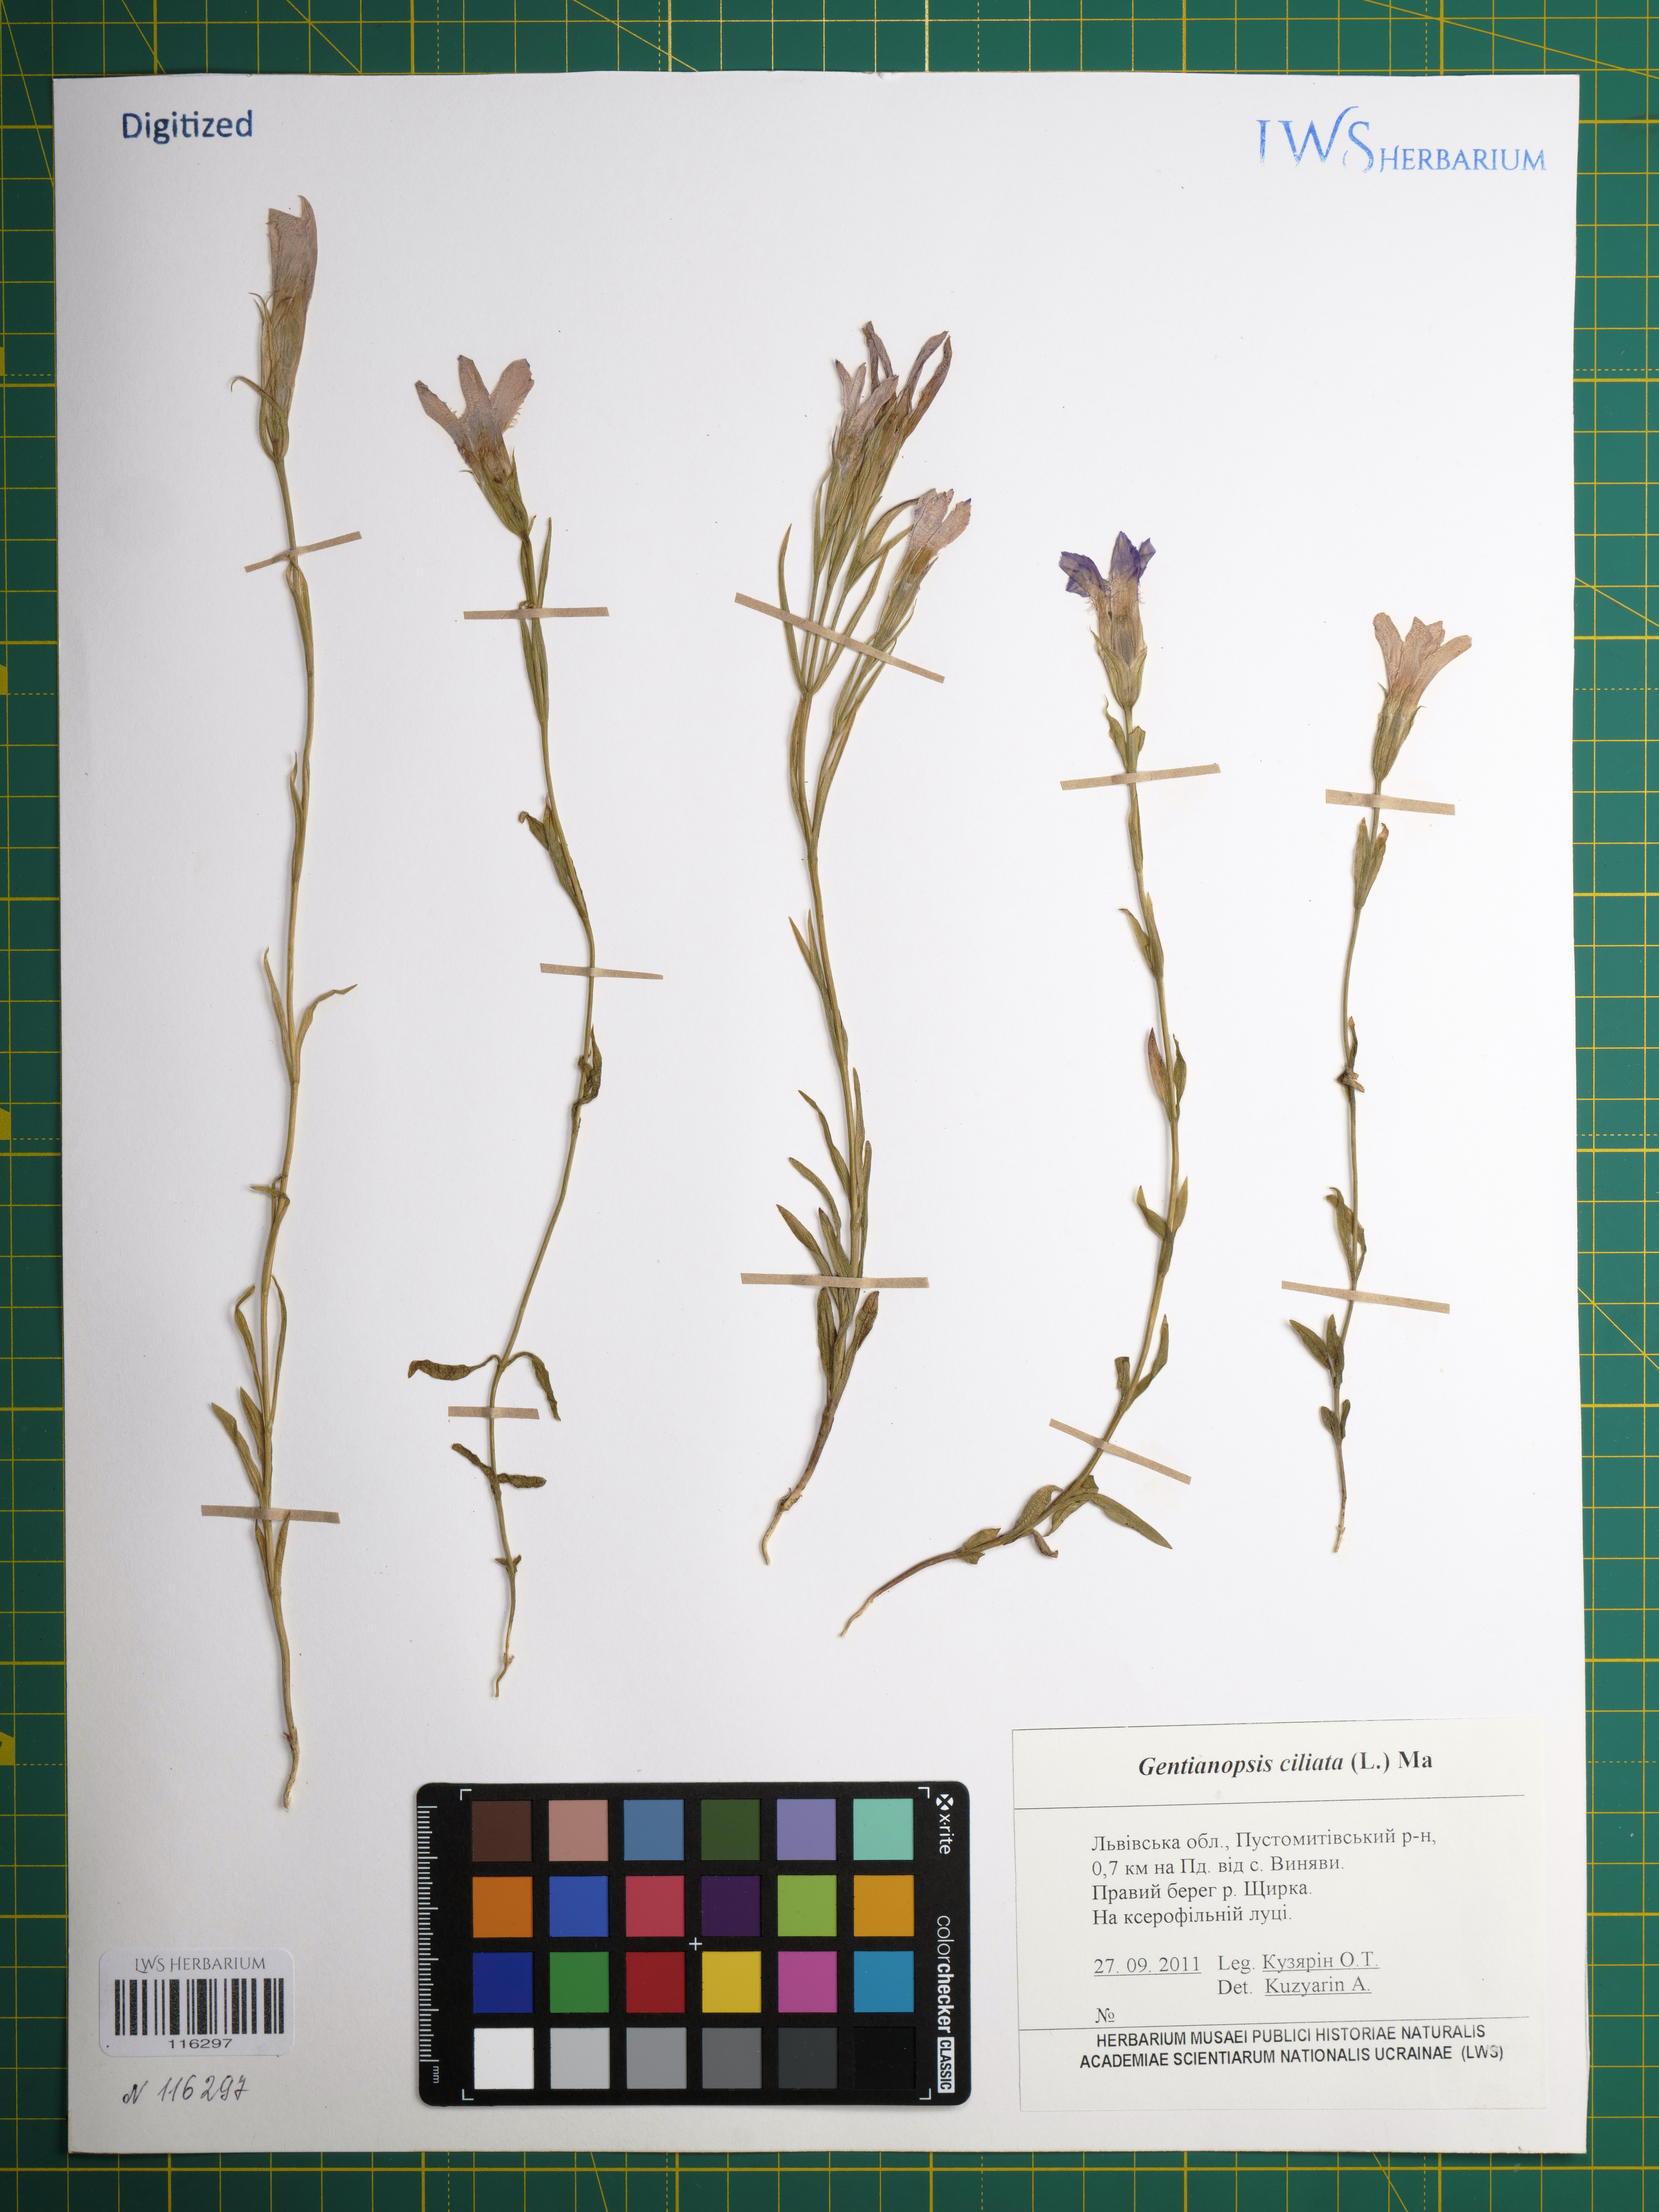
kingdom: Plantae
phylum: Tracheophyta
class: Magnoliopsida
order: Gentianales
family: Gentianaceae
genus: Gentianopsis
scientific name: Gentianopsis ciliata
